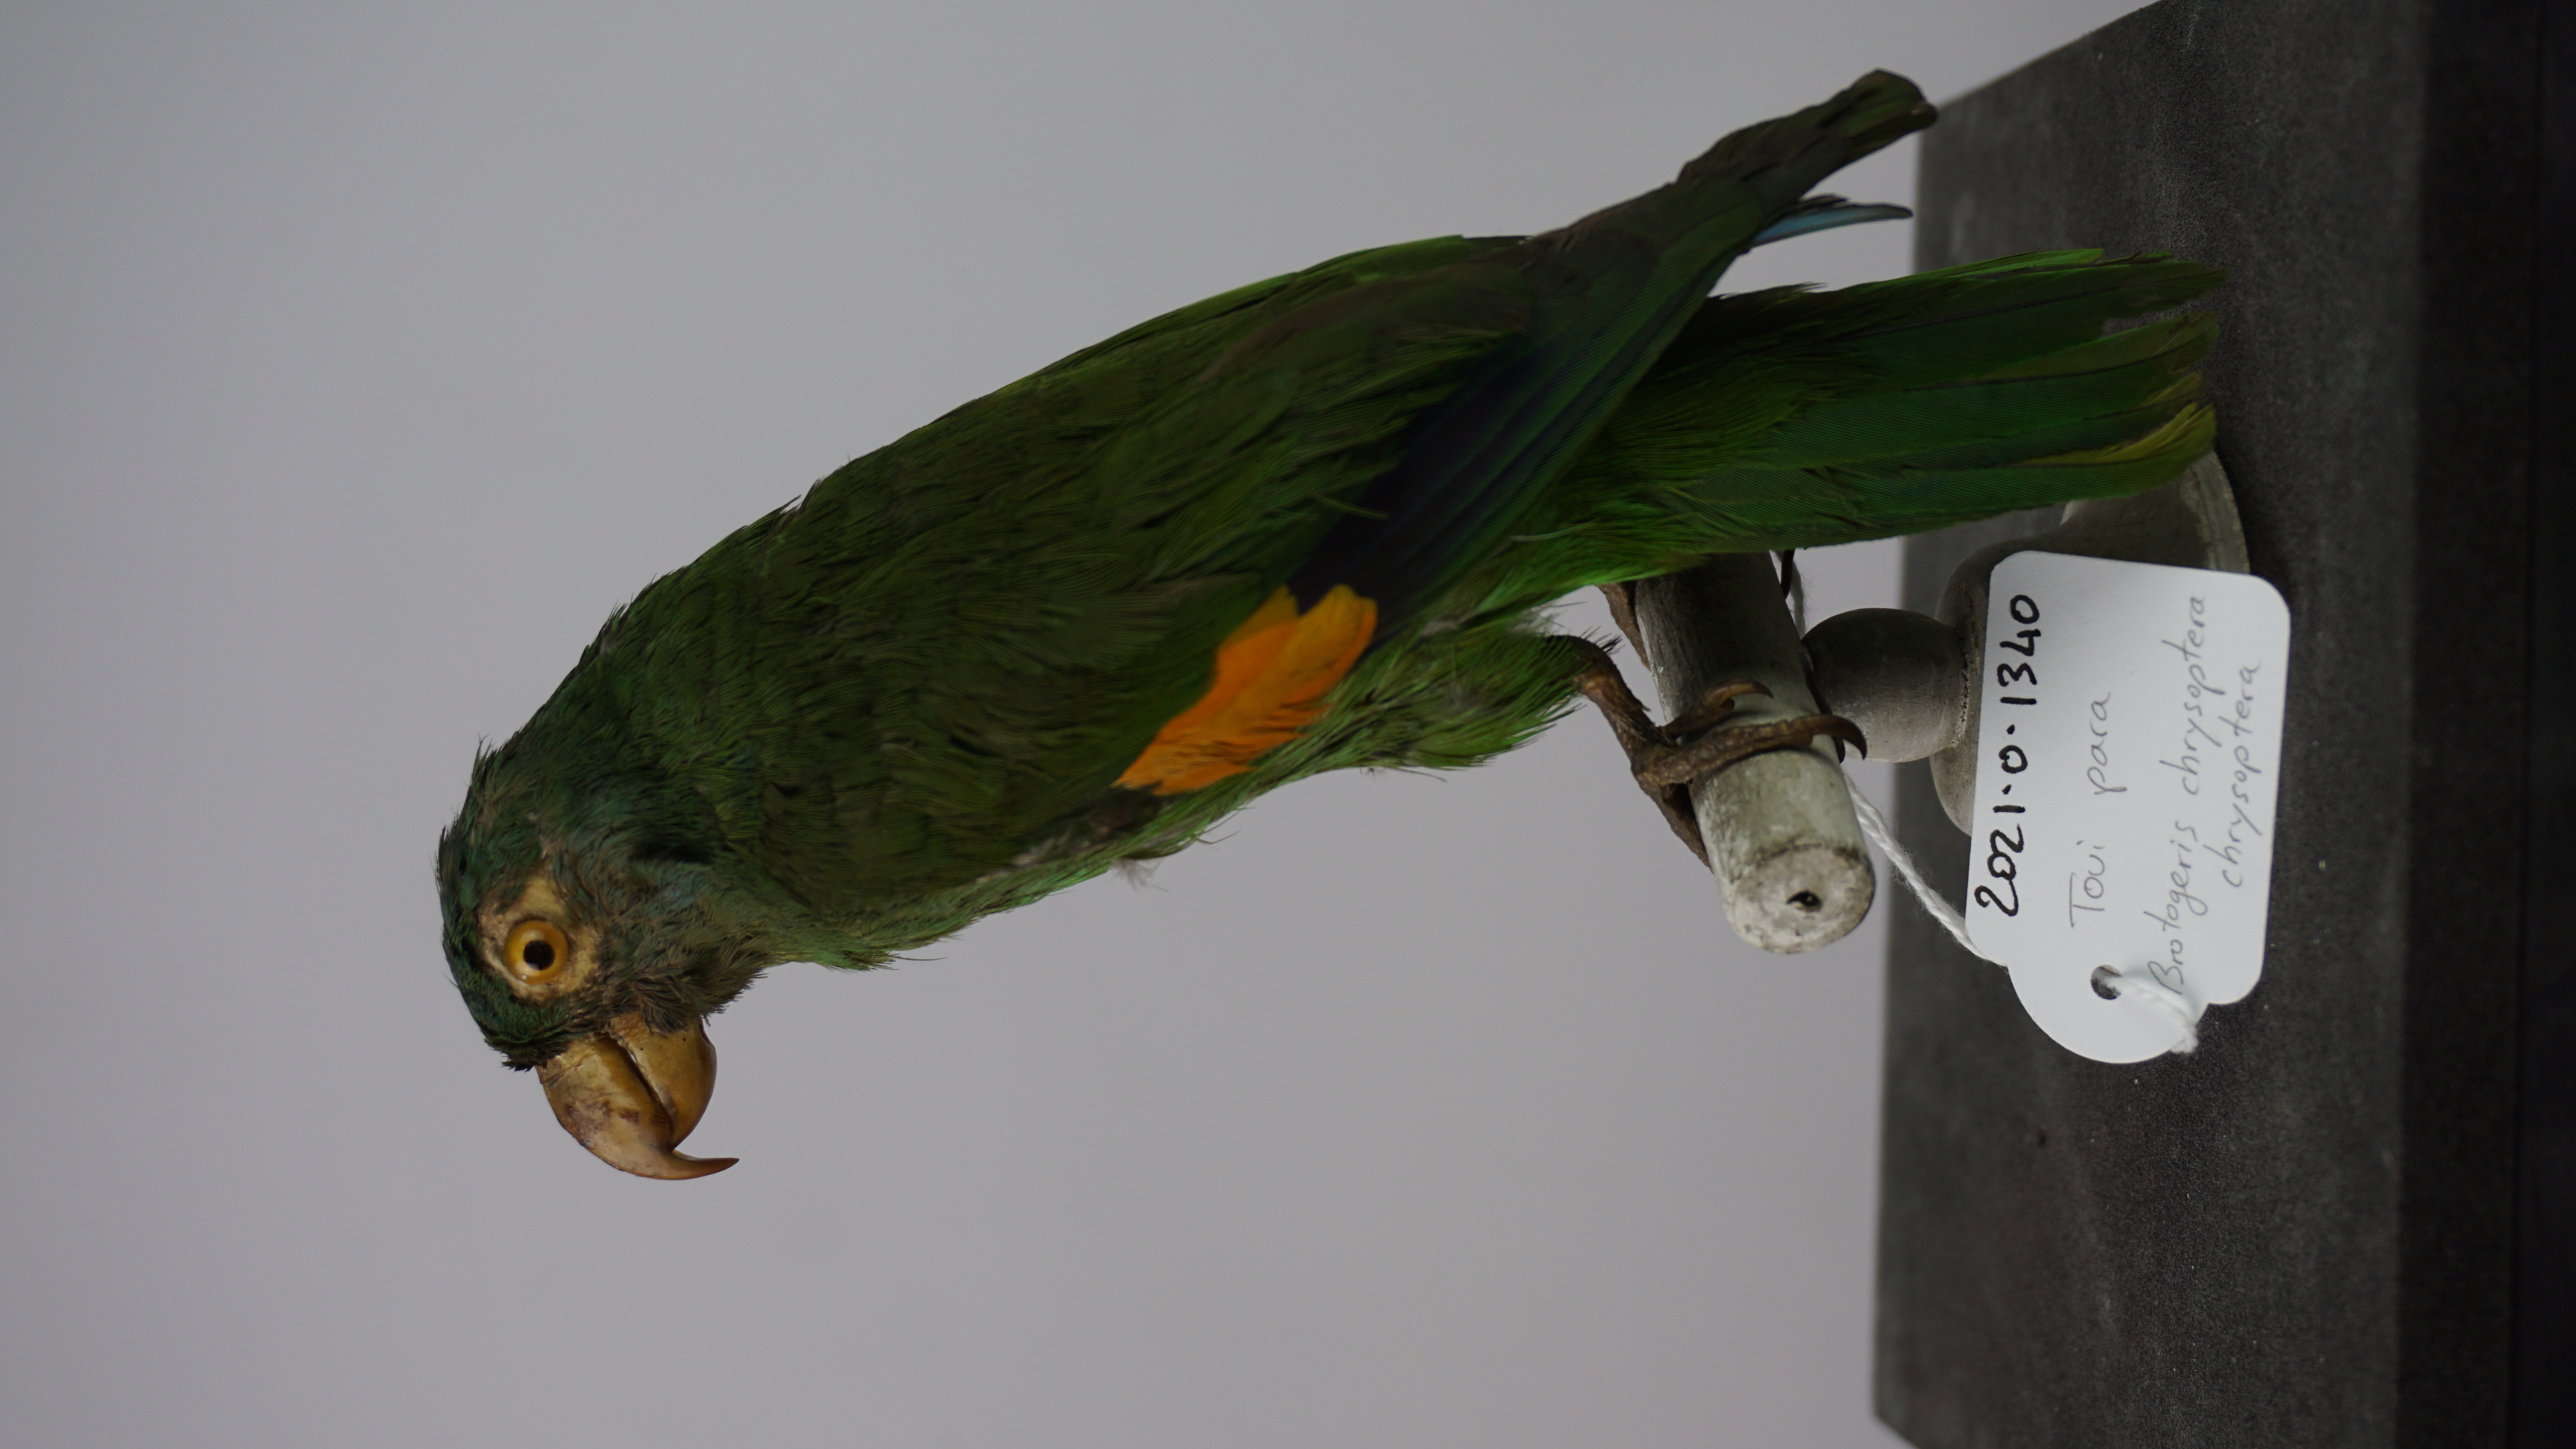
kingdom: Animalia
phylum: Chordata
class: Aves
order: Psittaciformes
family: Psittacidae
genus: Brotogeris
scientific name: Brotogeris chrysoptera
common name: Golden-winged parakeet
